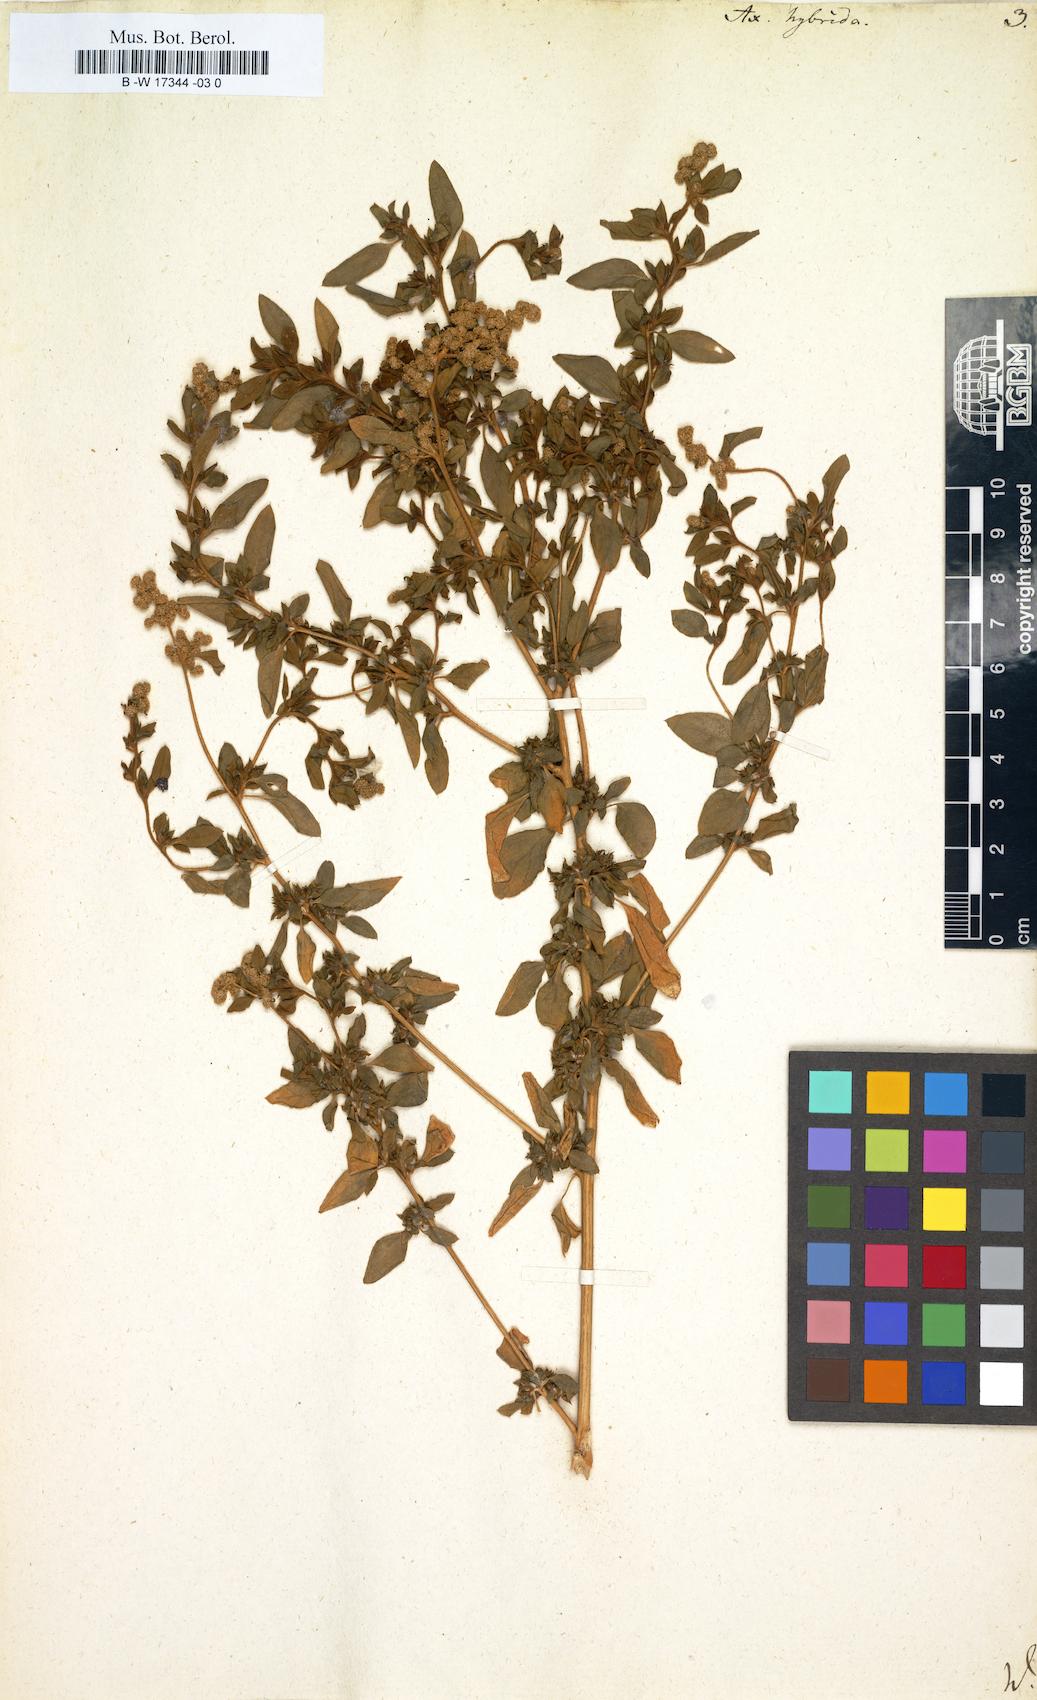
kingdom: Plantae
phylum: Tracheophyta
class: Magnoliopsida
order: Caryophyllales
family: Amaranthaceae
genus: Axyris
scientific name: Axyris hybrida
